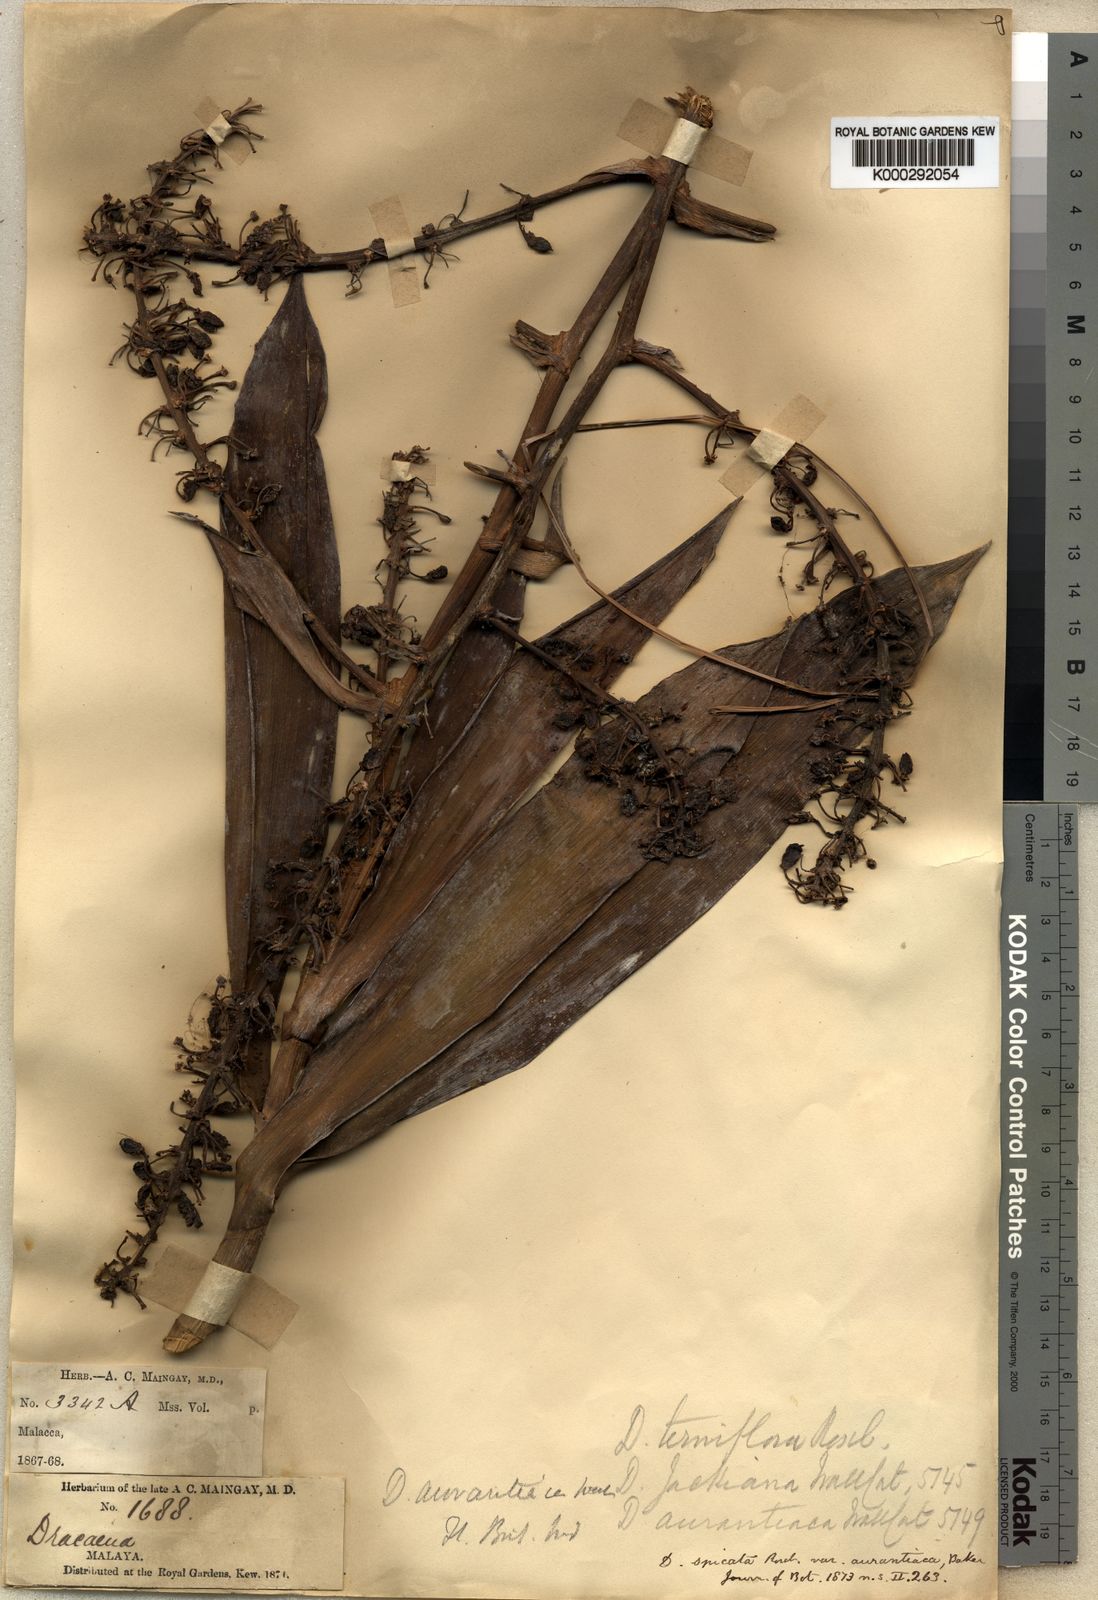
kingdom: Plantae
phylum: Tracheophyta
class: Liliopsida
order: Asparagales
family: Asparagaceae
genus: Dracaena
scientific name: Dracaena
